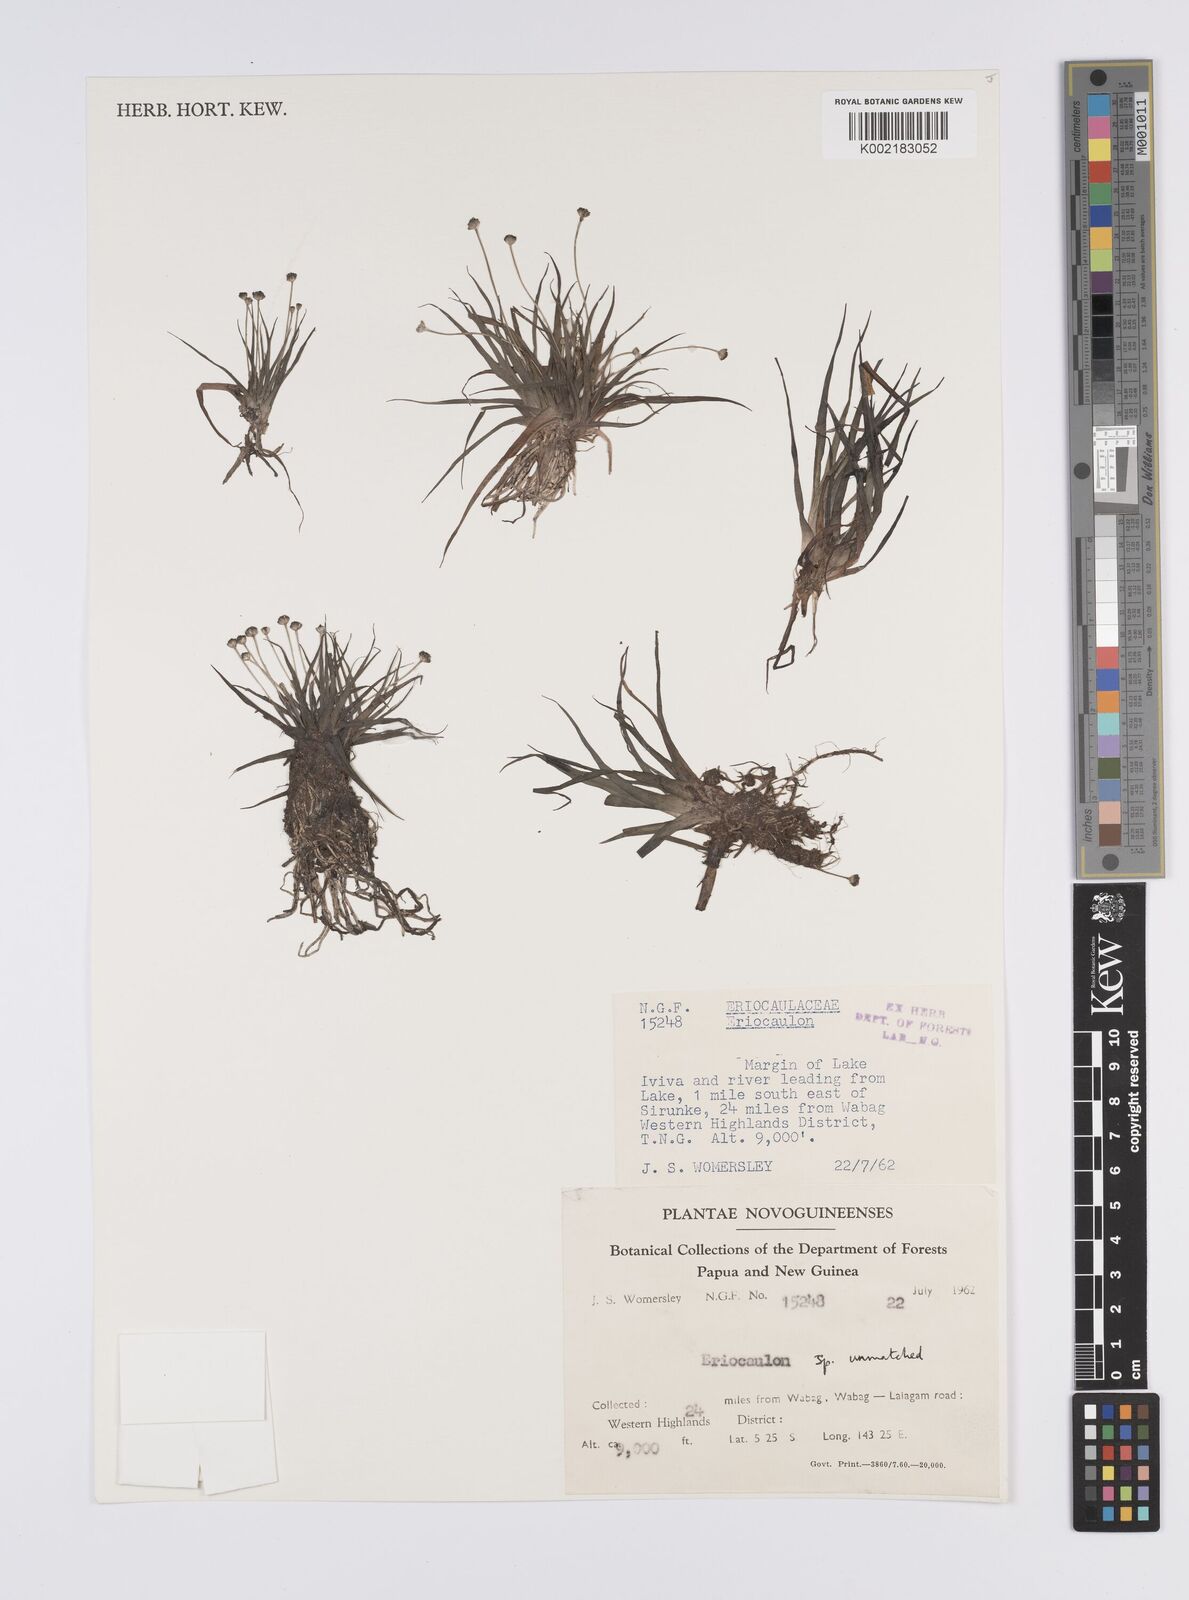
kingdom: Plantae
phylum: Tracheophyta
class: Liliopsida
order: Poales
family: Eriocaulaceae
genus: Eriocaulon
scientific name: Eriocaulon
